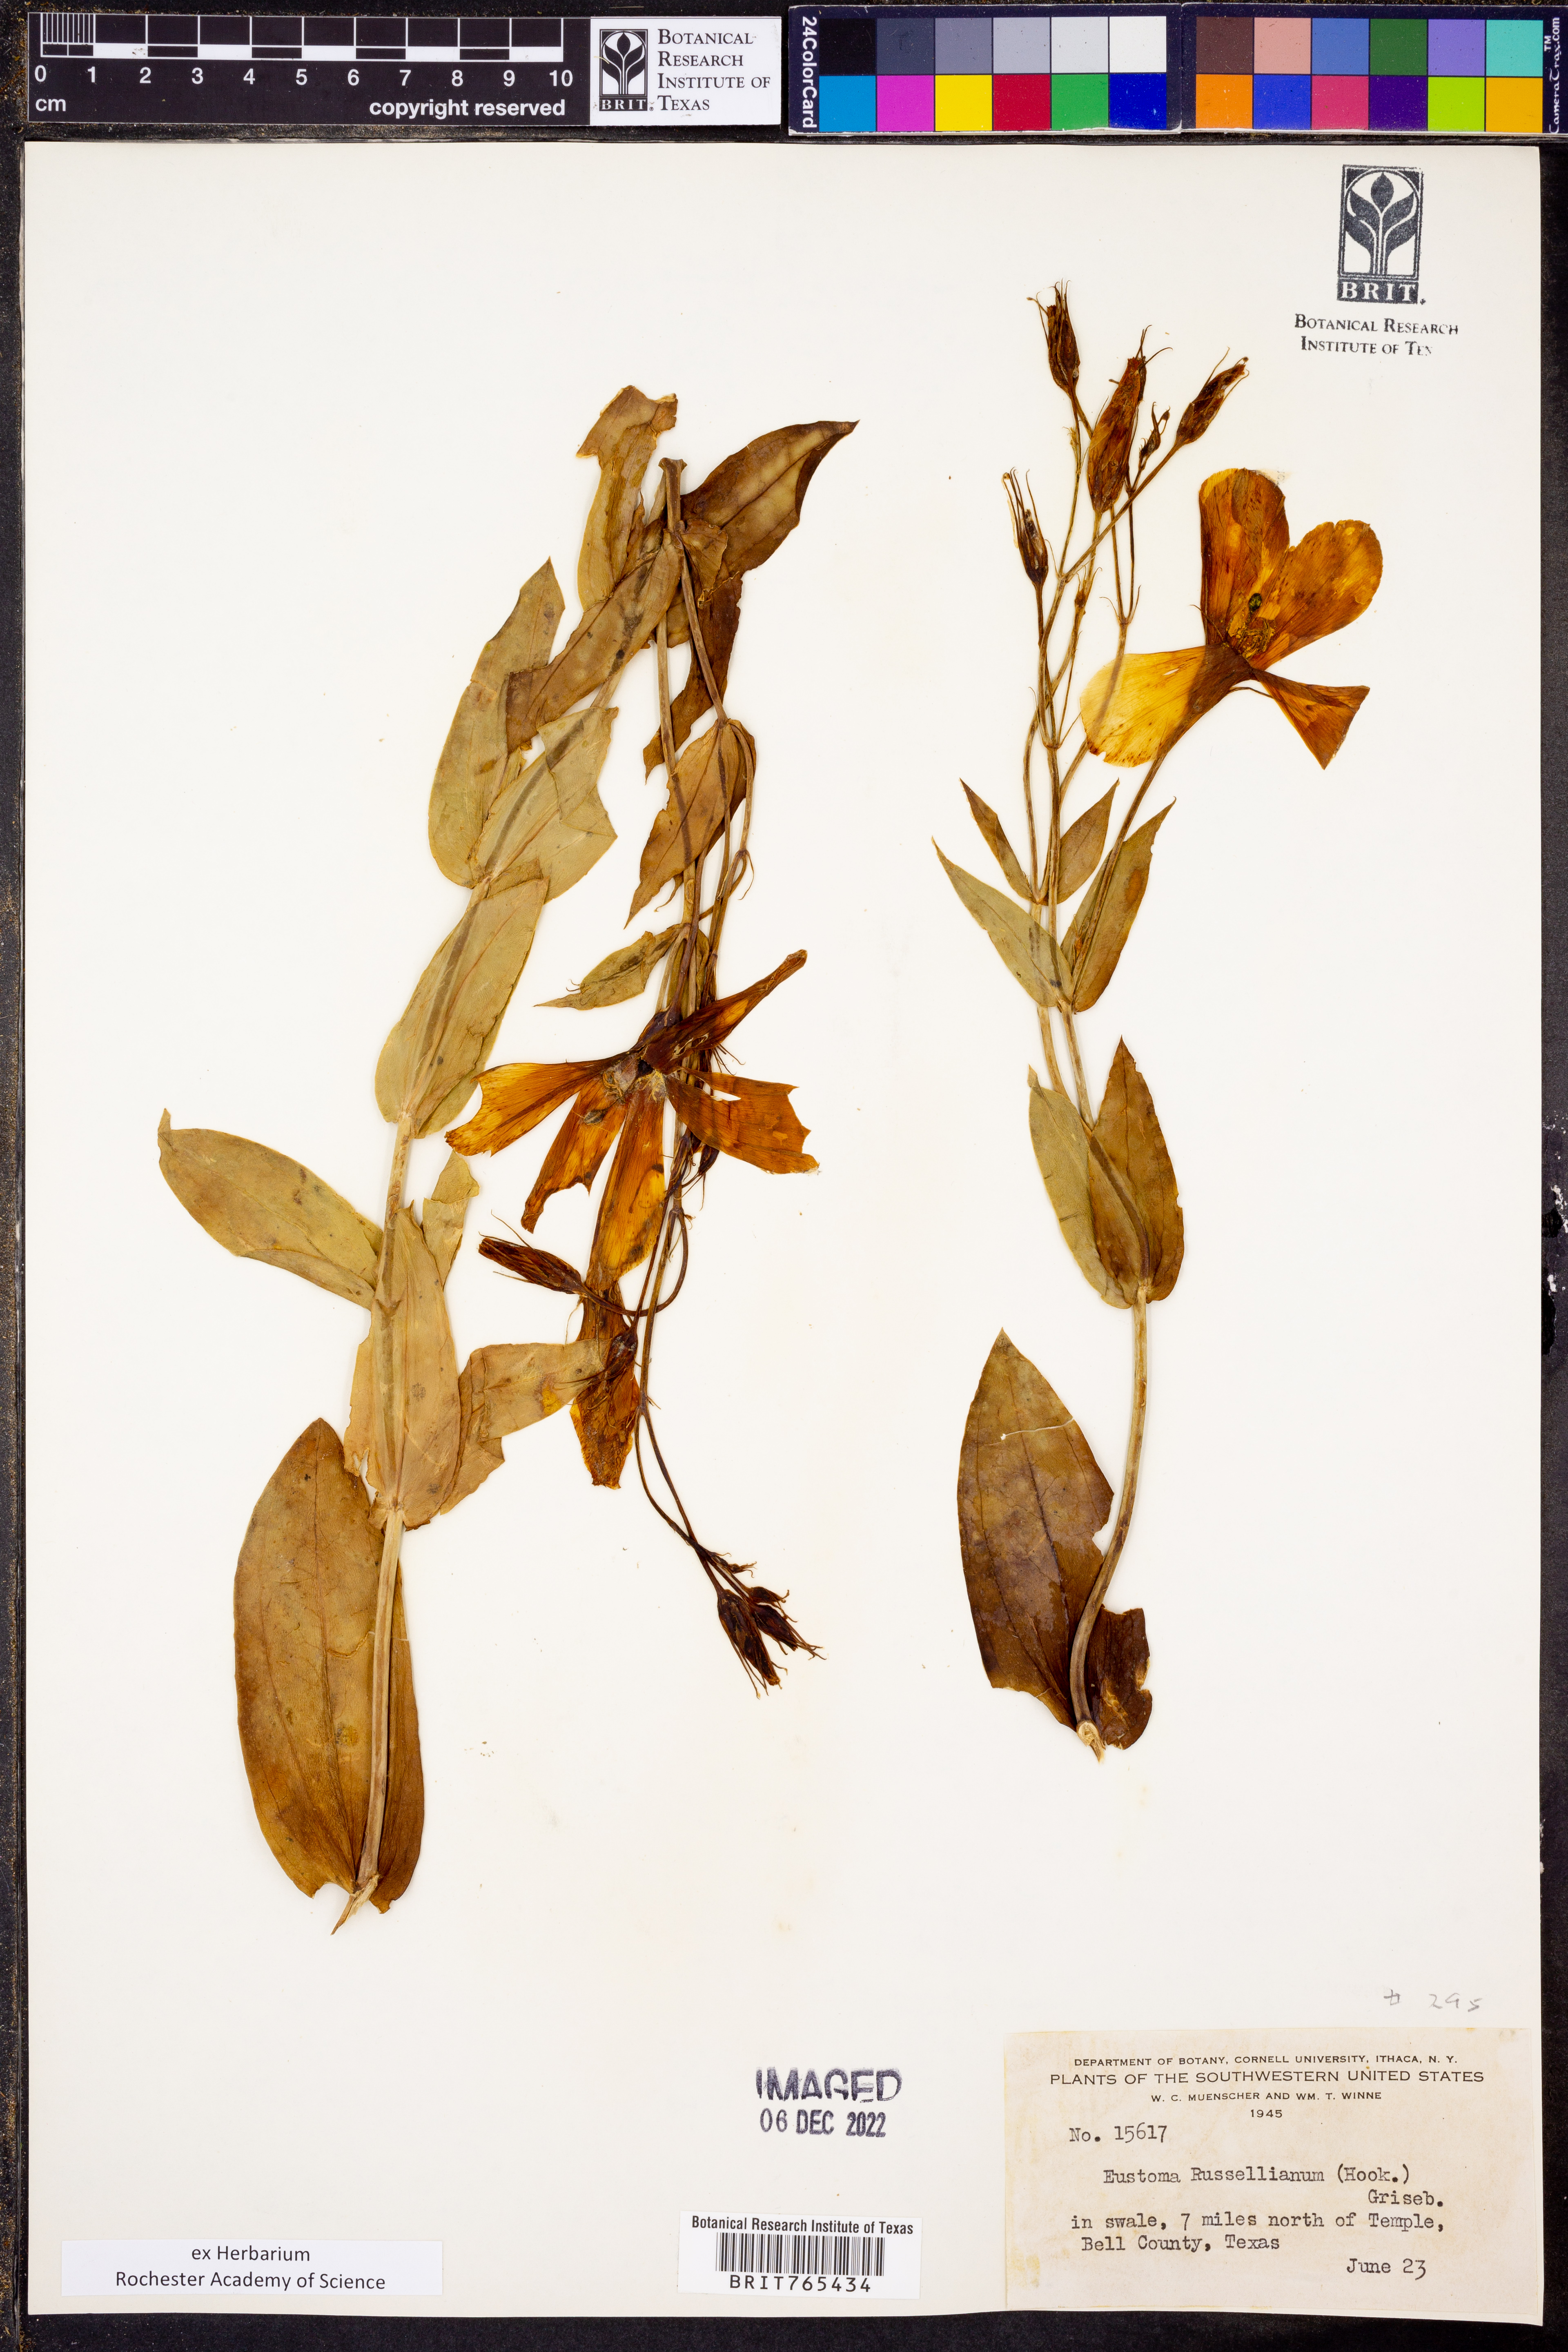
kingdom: Plantae
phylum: Tracheophyta
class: Magnoliopsida
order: Gentianales
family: Gentianaceae
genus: Eustoma
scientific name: Eustoma russellianum
